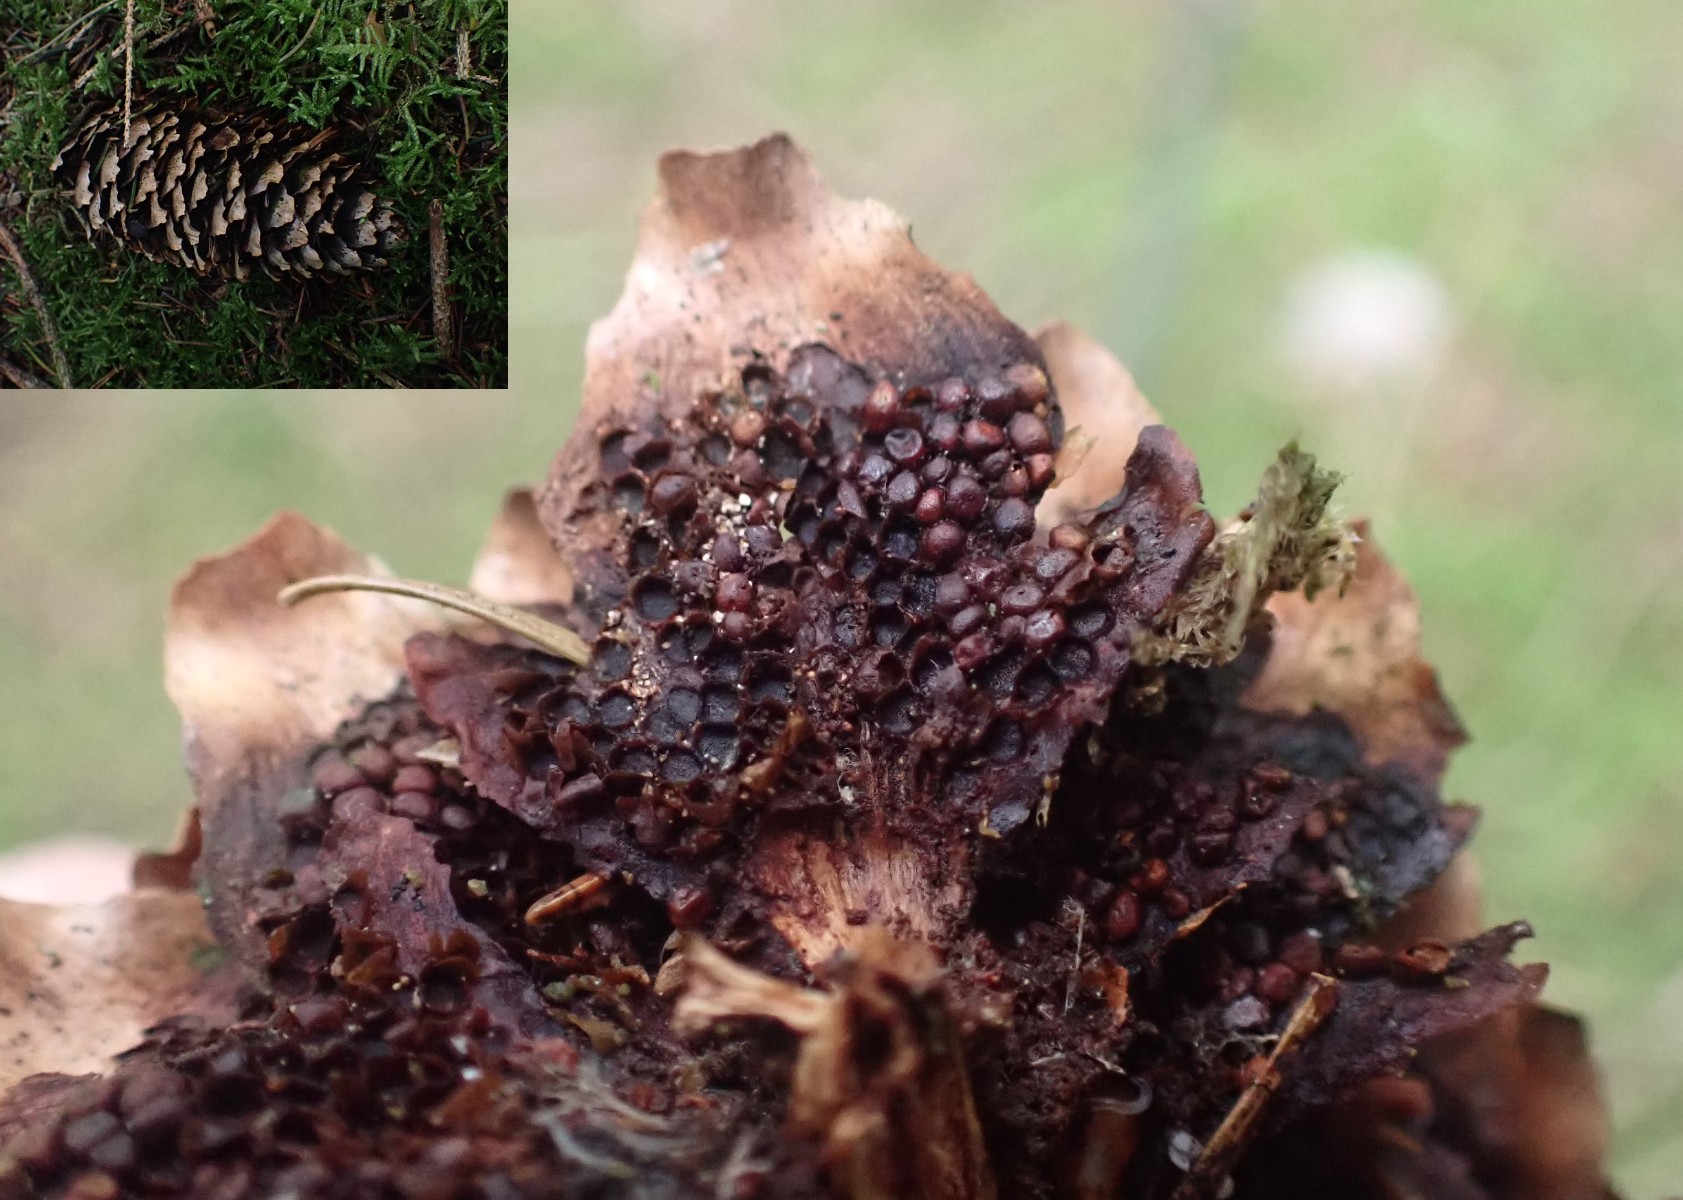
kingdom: Fungi
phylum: Basidiomycota
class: Pucciniomycetes
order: Pucciniales
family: Pucciniastraceae
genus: Thekopsora
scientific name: Thekopsora areolata
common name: grankogle-nålerust
